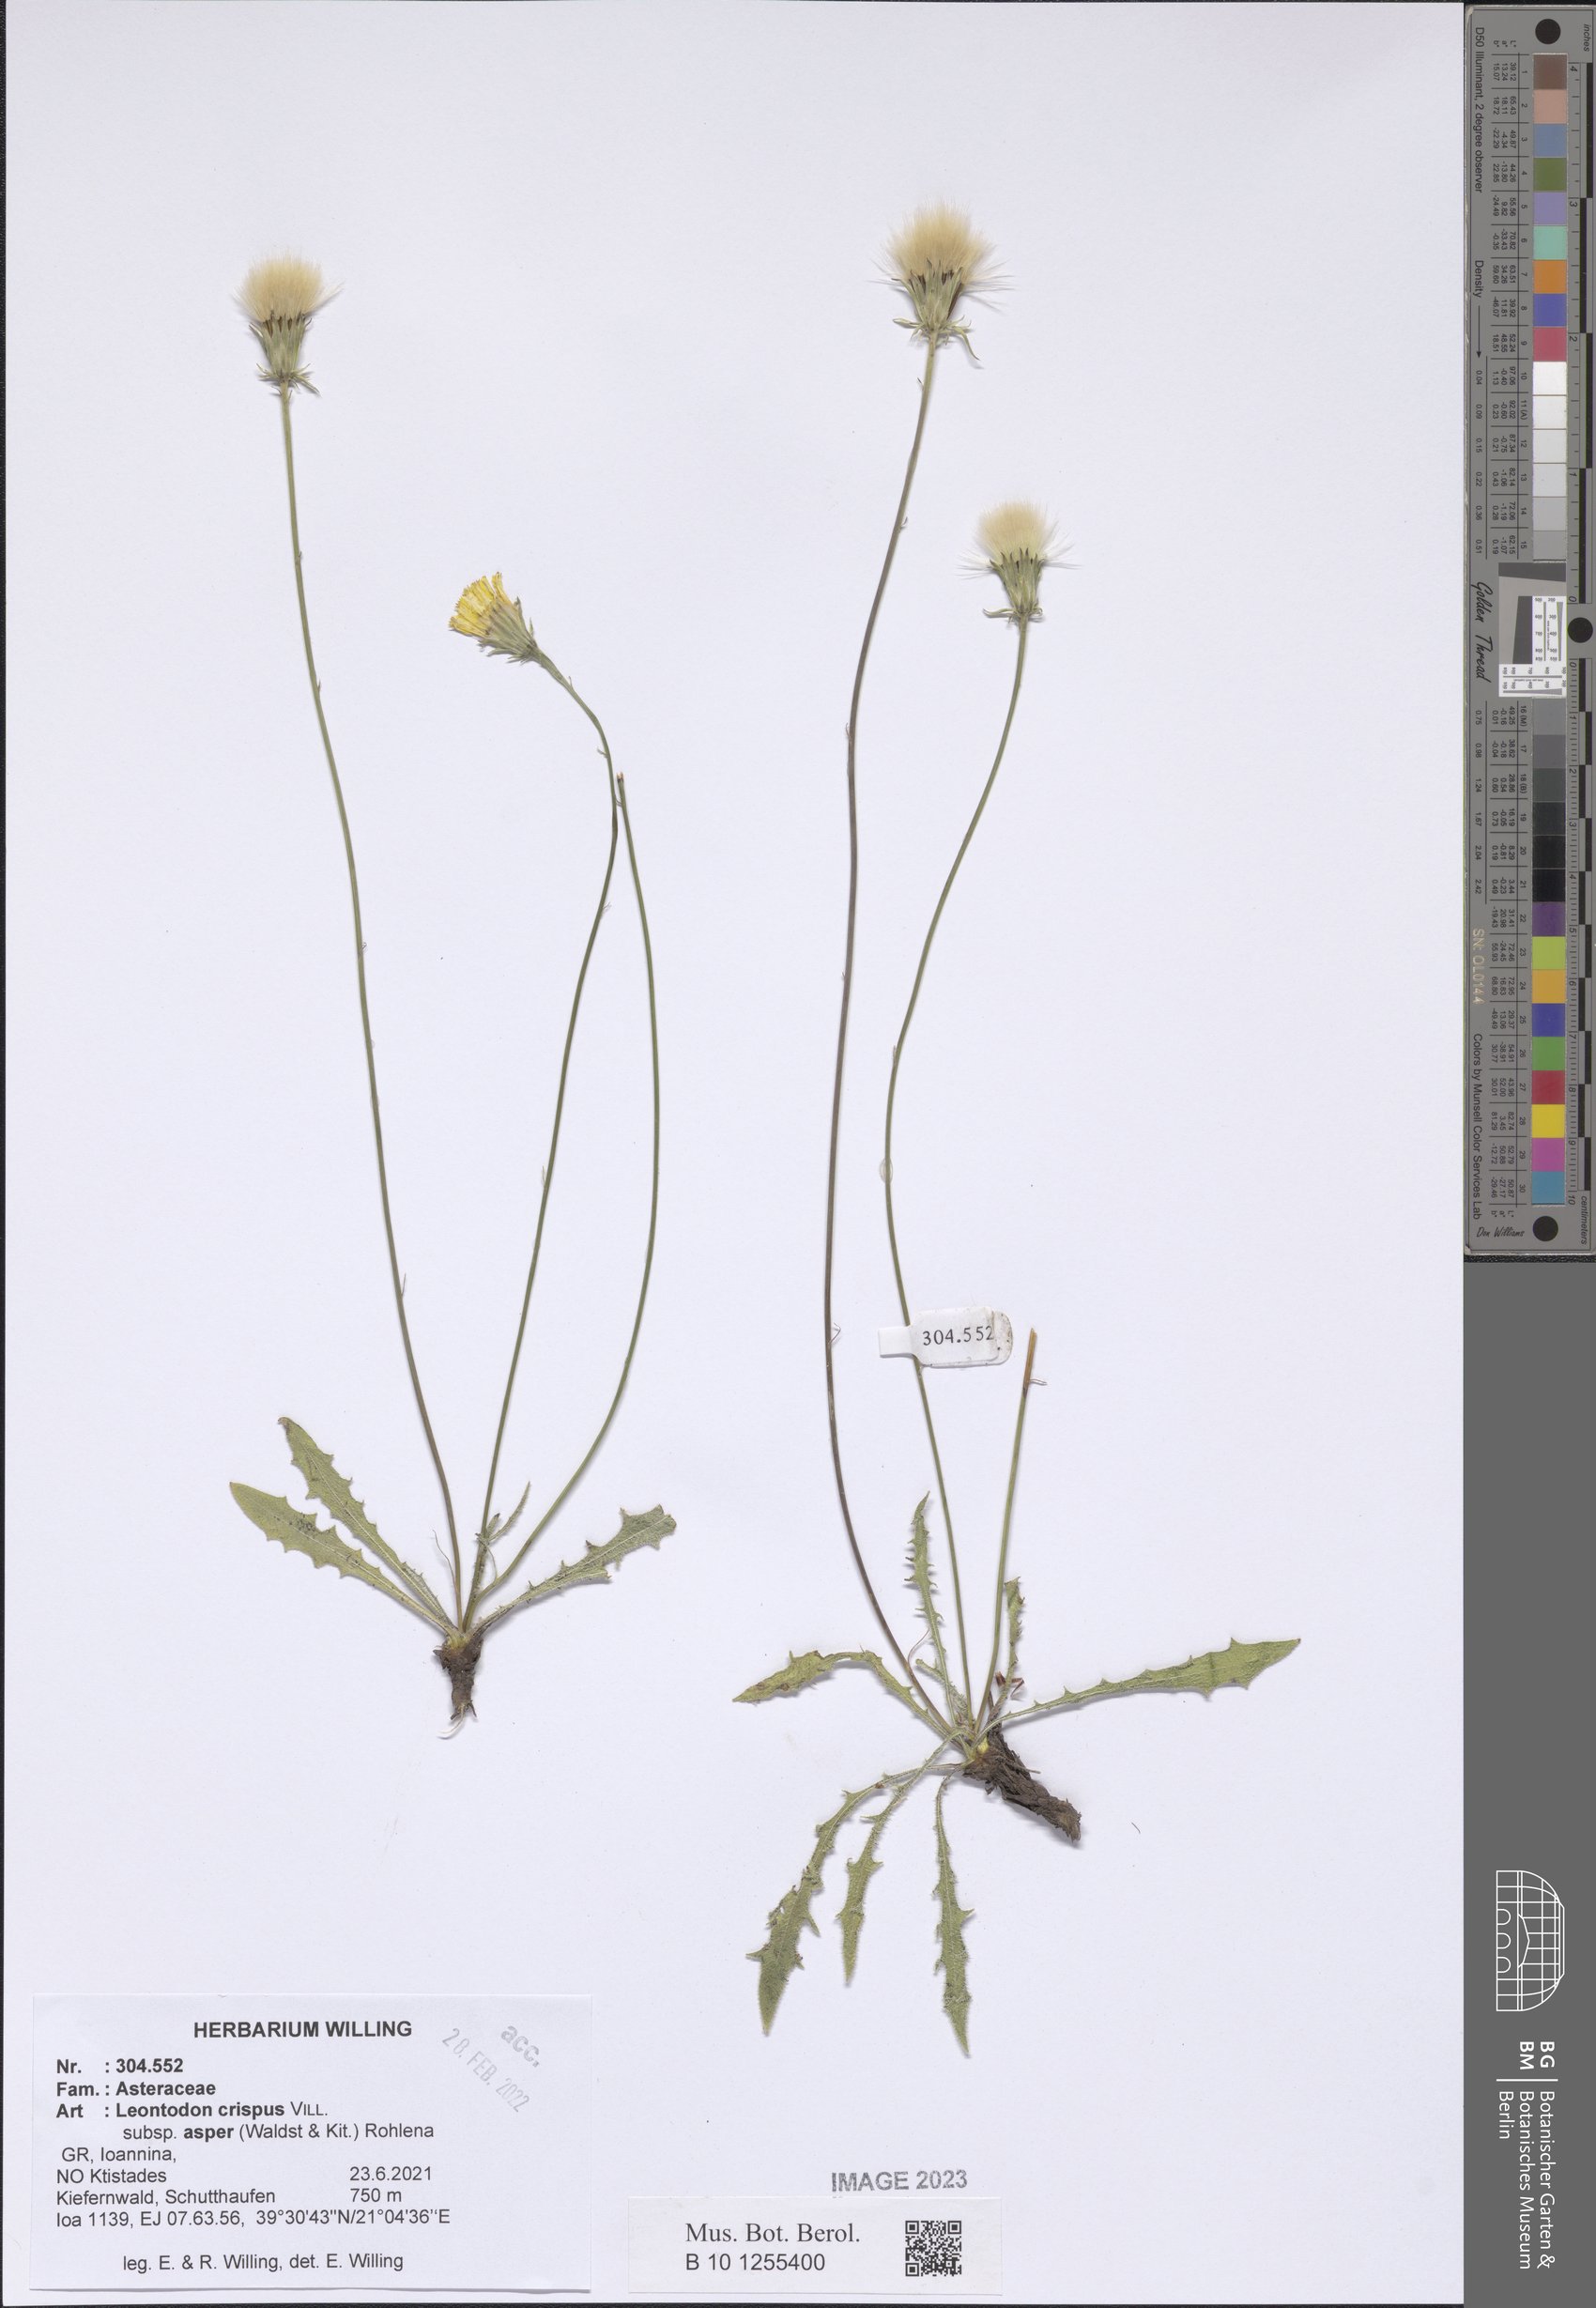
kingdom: Plantae
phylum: Tracheophyta
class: Magnoliopsida
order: Asterales
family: Asteraceae
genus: Leontodon
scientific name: Leontodon biscutellifolius
